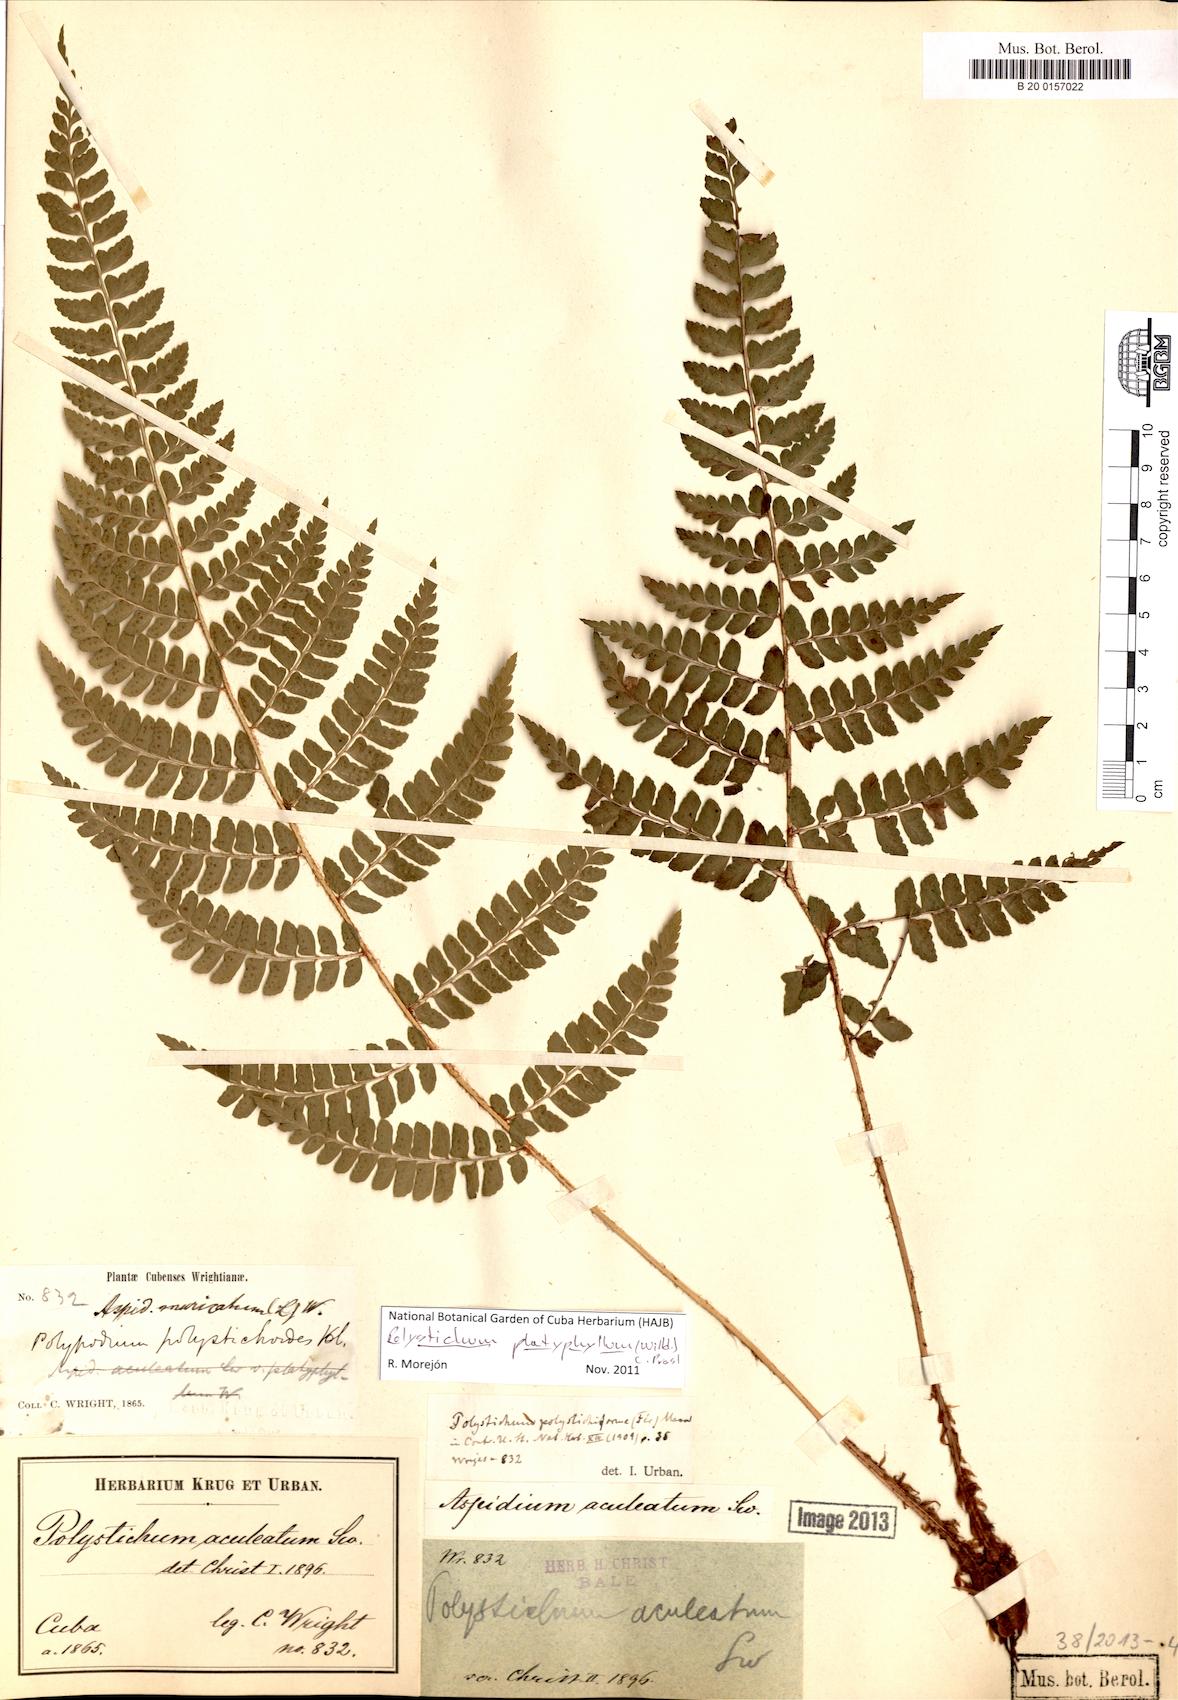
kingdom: Plantae
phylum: Tracheophyta
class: Polypodiopsida
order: Polypodiales
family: Dryopteridaceae
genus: Polystichum
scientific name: Polystichum platyphyllum
